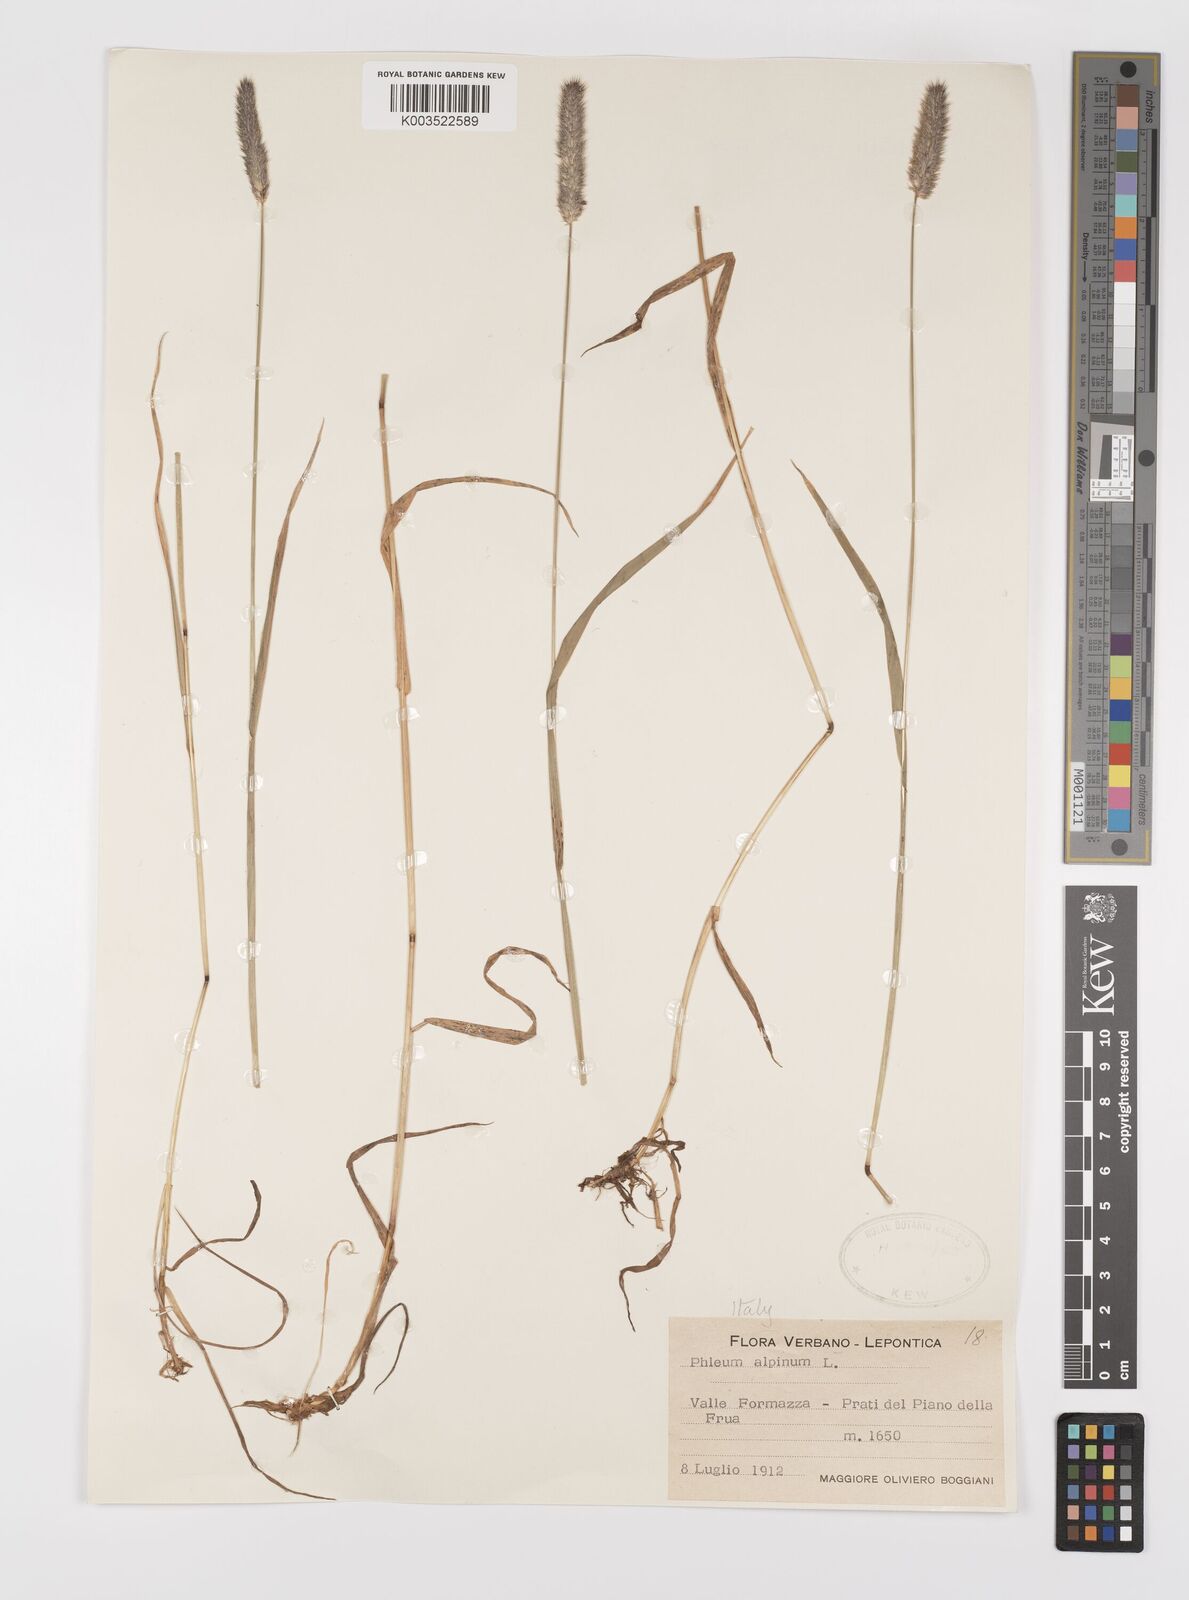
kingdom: Plantae
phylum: Tracheophyta
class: Liliopsida
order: Poales
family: Poaceae
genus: Phleum
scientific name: Phleum alpinum
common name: Alpine cat's-tail
